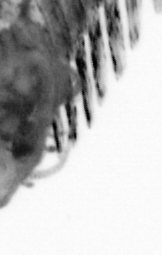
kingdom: Animalia
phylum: Annelida
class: Polychaeta
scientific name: Polychaeta
